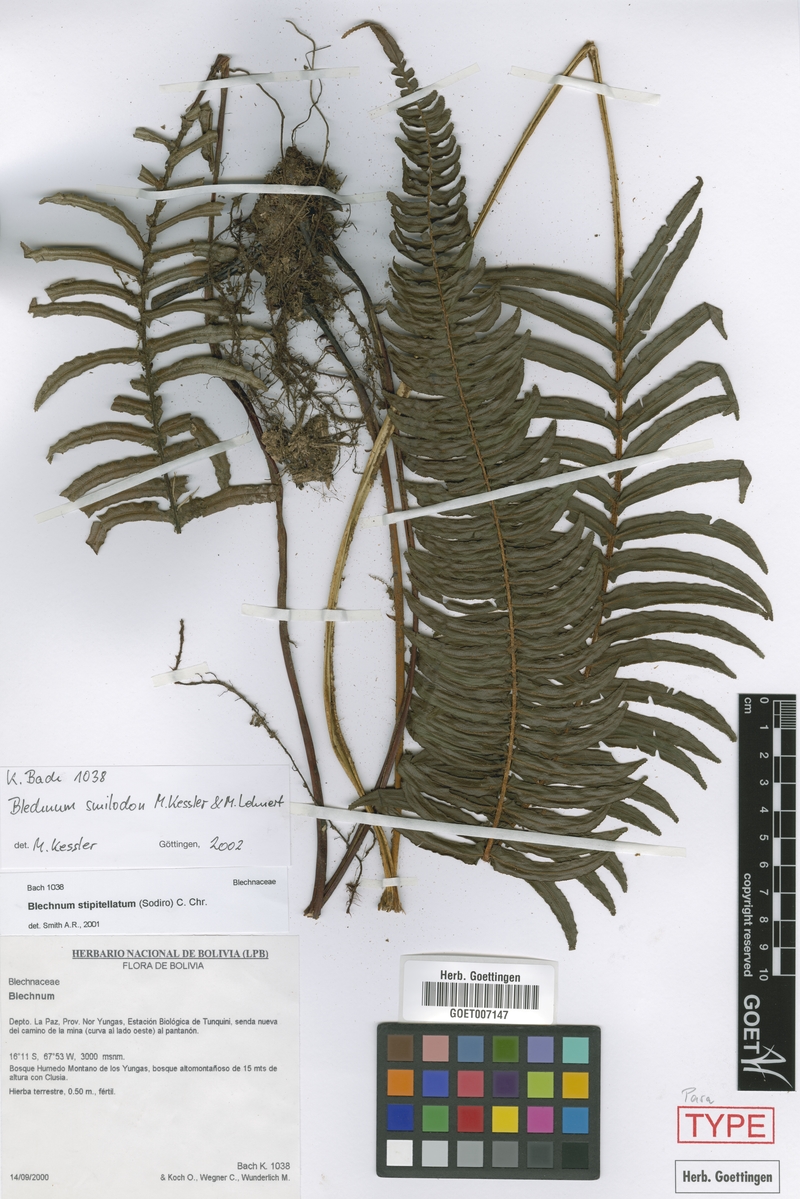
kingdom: Plantae
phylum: Tracheophyta
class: Polypodiopsida
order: Polypodiales
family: Blechnaceae
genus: Parablechnum
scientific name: Parablechnum smilodon
